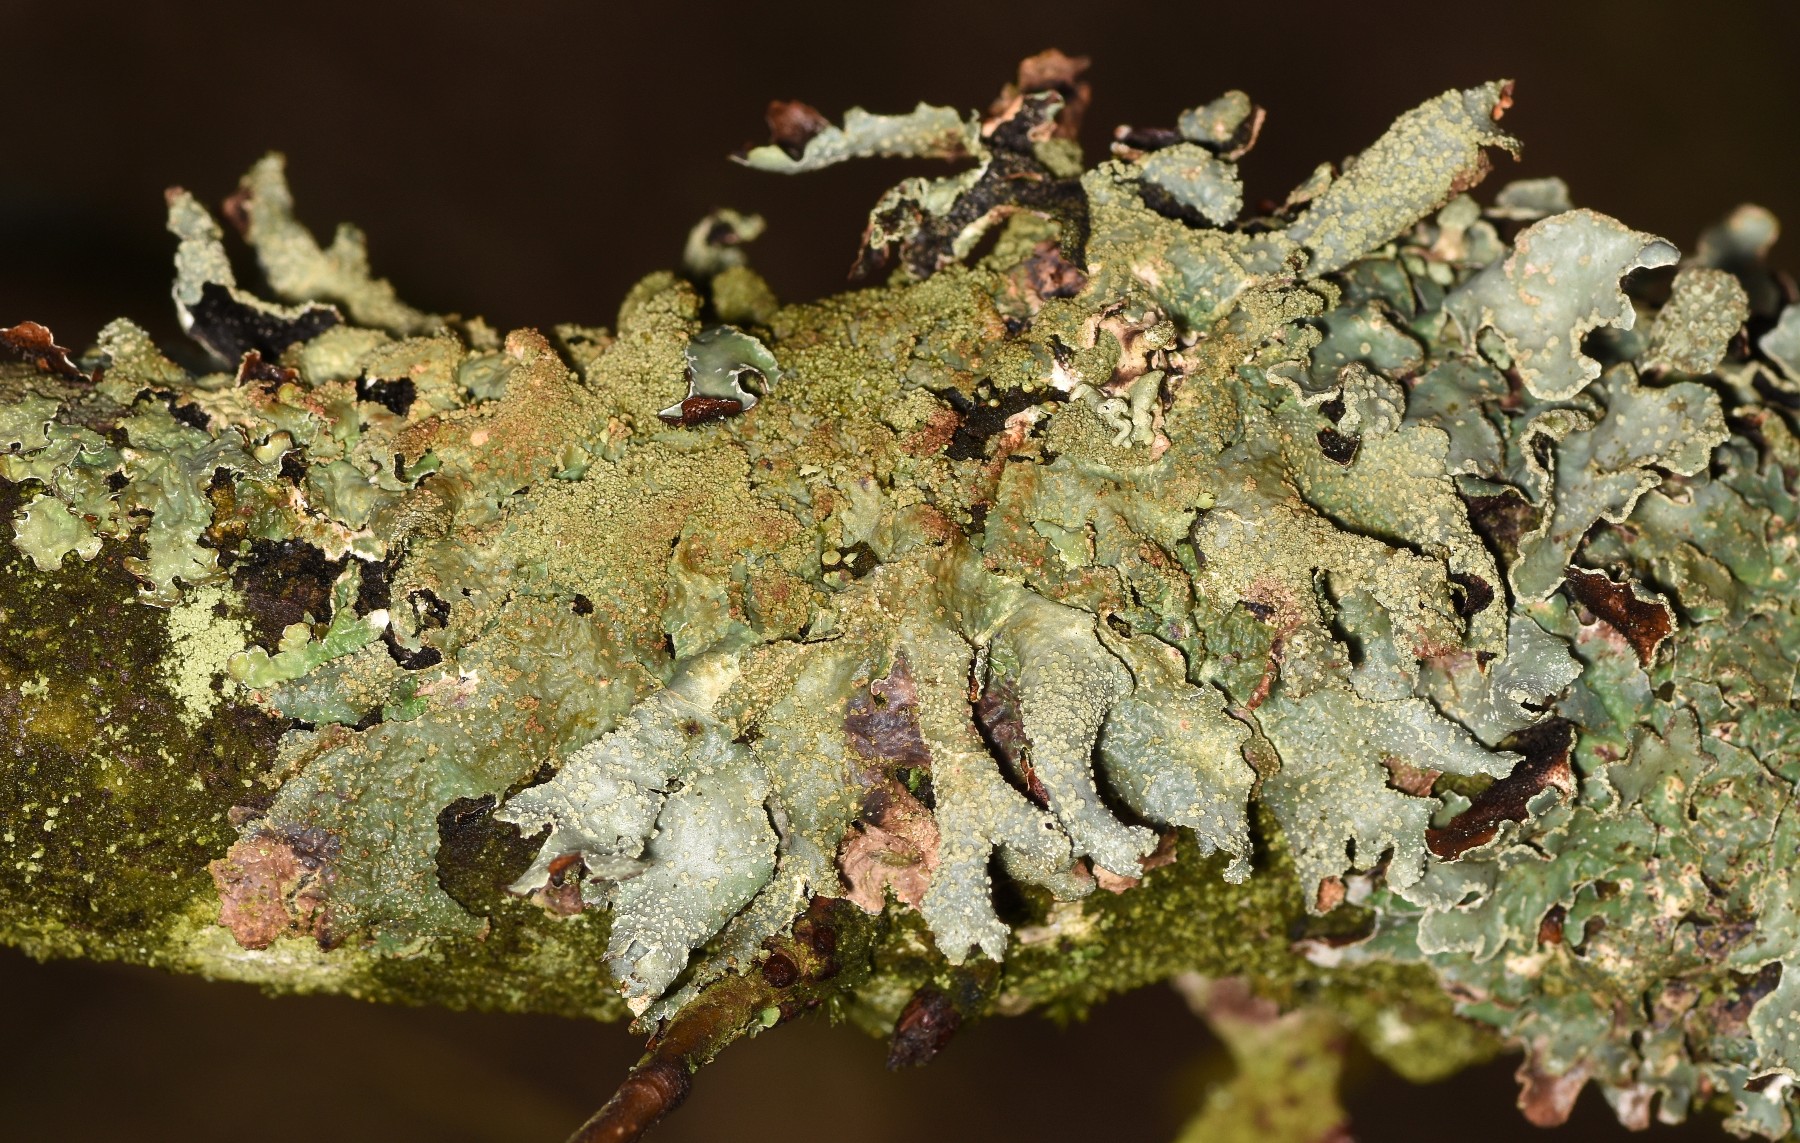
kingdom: Fungi
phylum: Ascomycota
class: Lecanoromycetes
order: Lecanorales
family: Parmeliaceae
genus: Parmelia
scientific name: Parmelia submontana
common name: langlobet skållav
